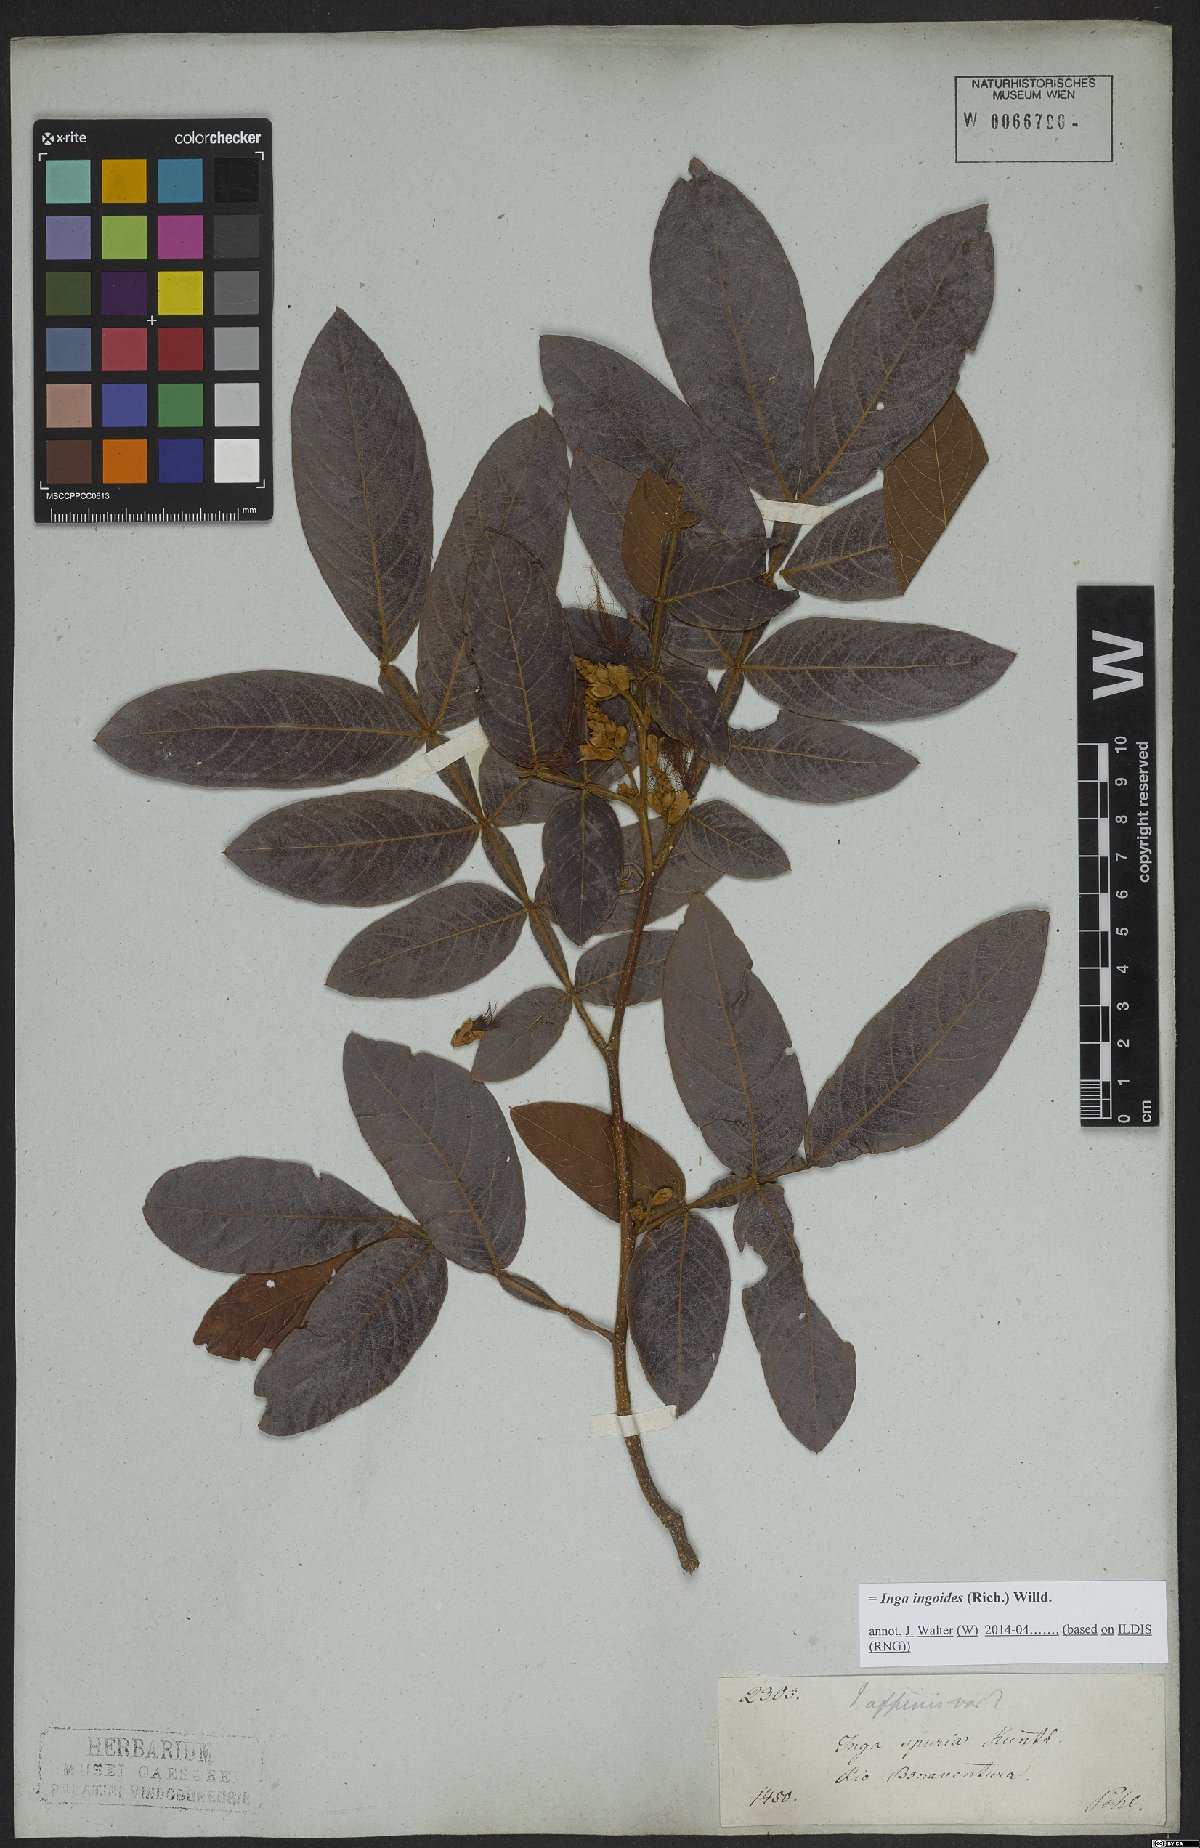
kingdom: Plantae
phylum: Tracheophyta
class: Magnoliopsida
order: Fabales
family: Fabaceae
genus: Inga
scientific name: Inga ingoides
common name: Spanish ash
